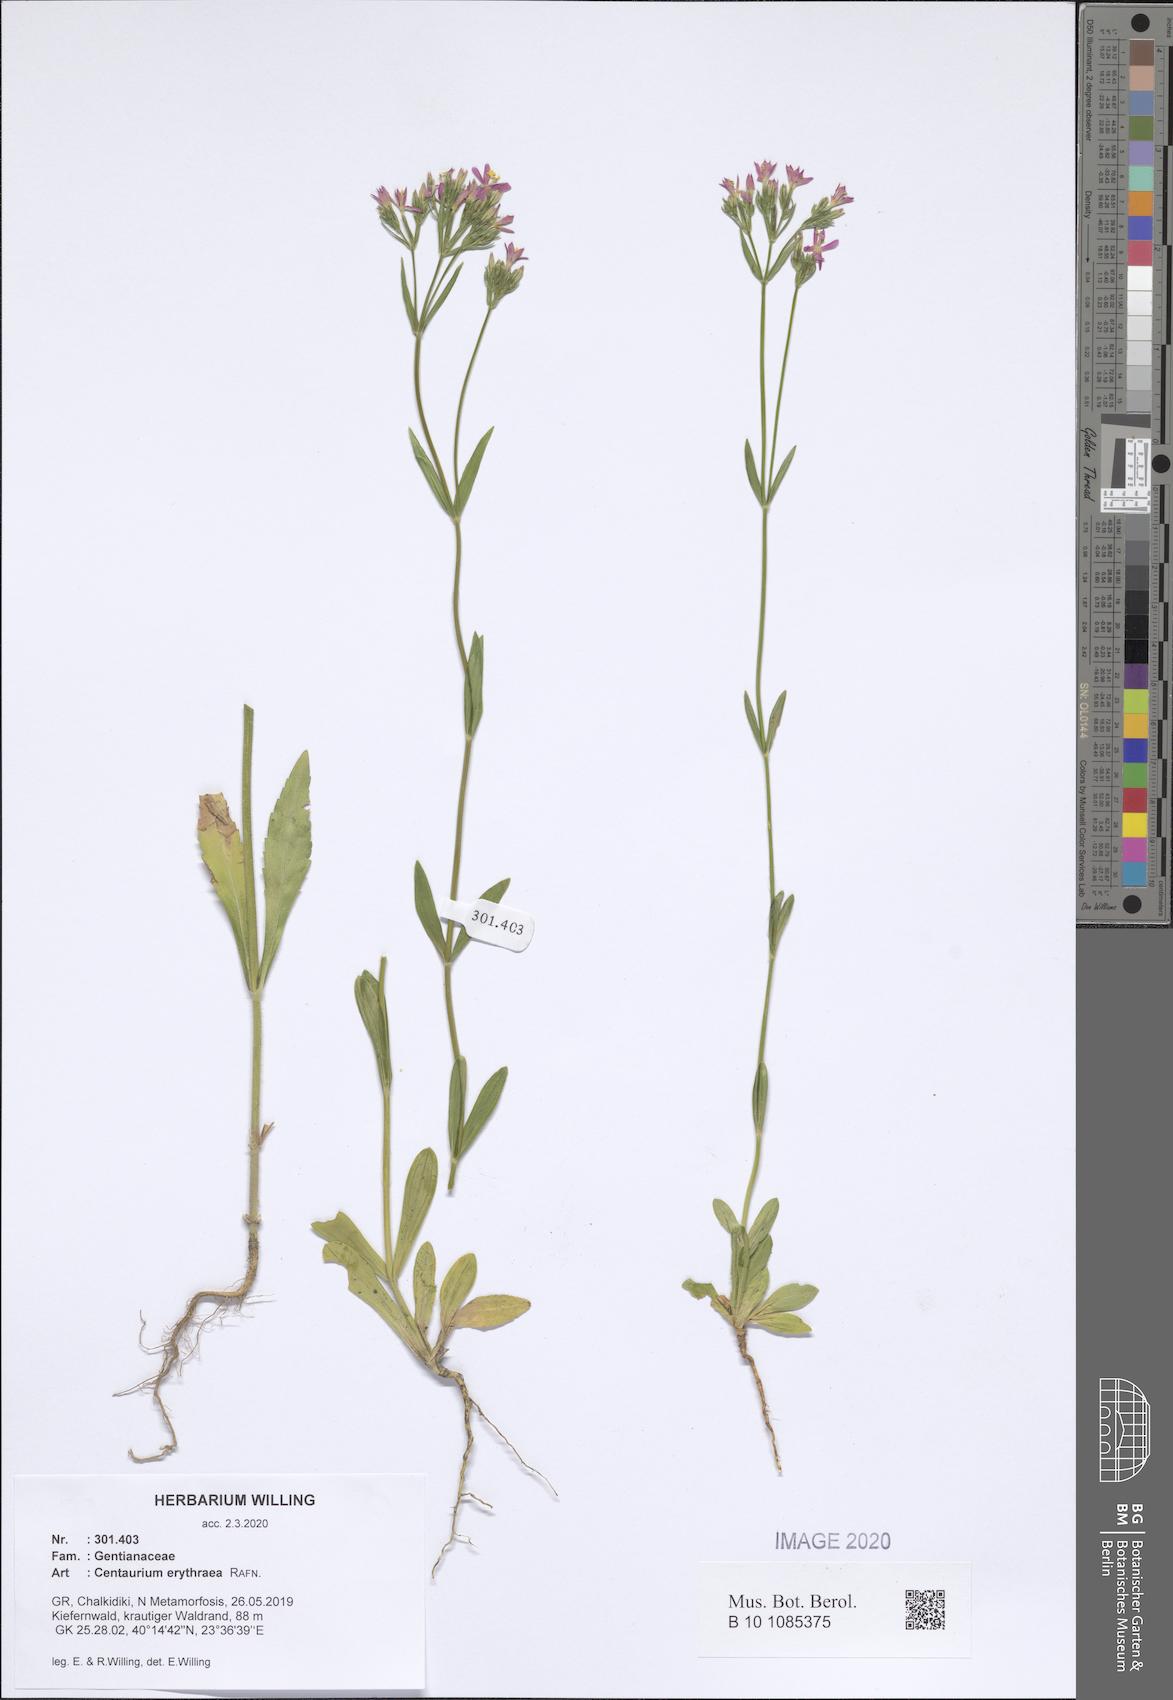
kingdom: Plantae
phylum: Tracheophyta
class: Magnoliopsida
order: Gentianales
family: Gentianaceae
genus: Centaurium
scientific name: Centaurium erythraea
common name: Common centaury
